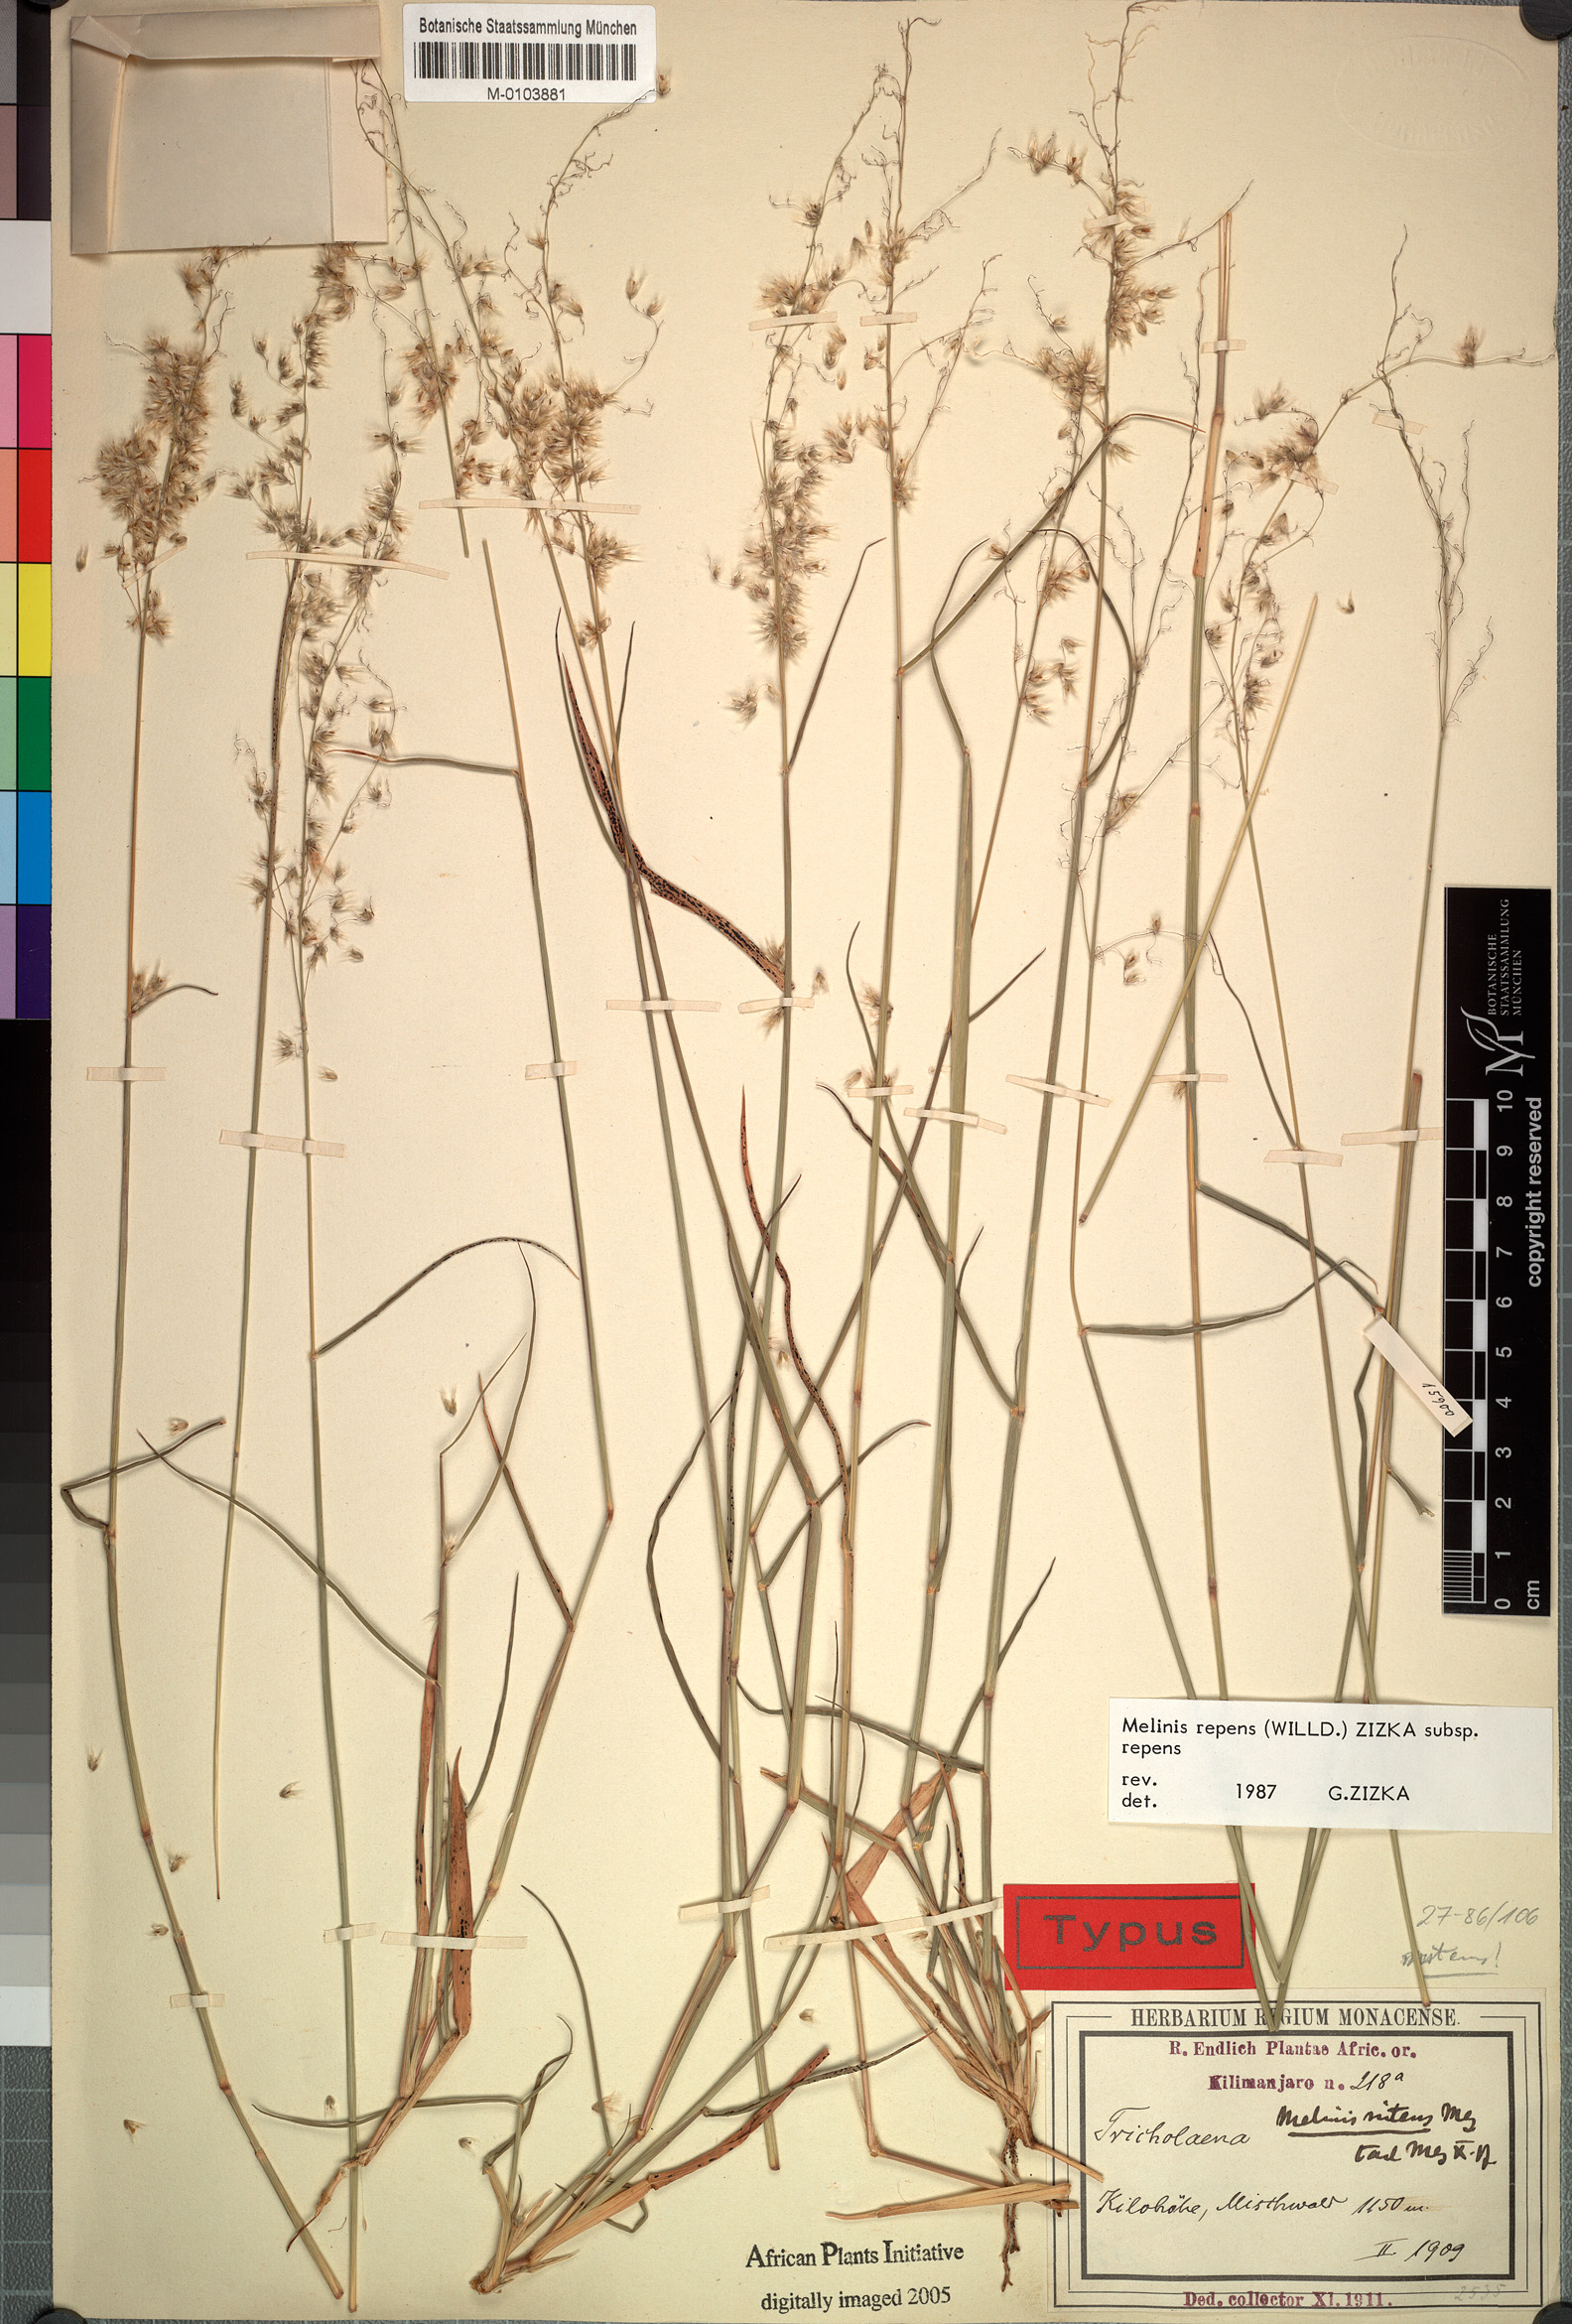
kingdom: Plantae
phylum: Tracheophyta
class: Liliopsida
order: Poales
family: Poaceae
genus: Melinis
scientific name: Melinis repens
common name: Rose natal grass
